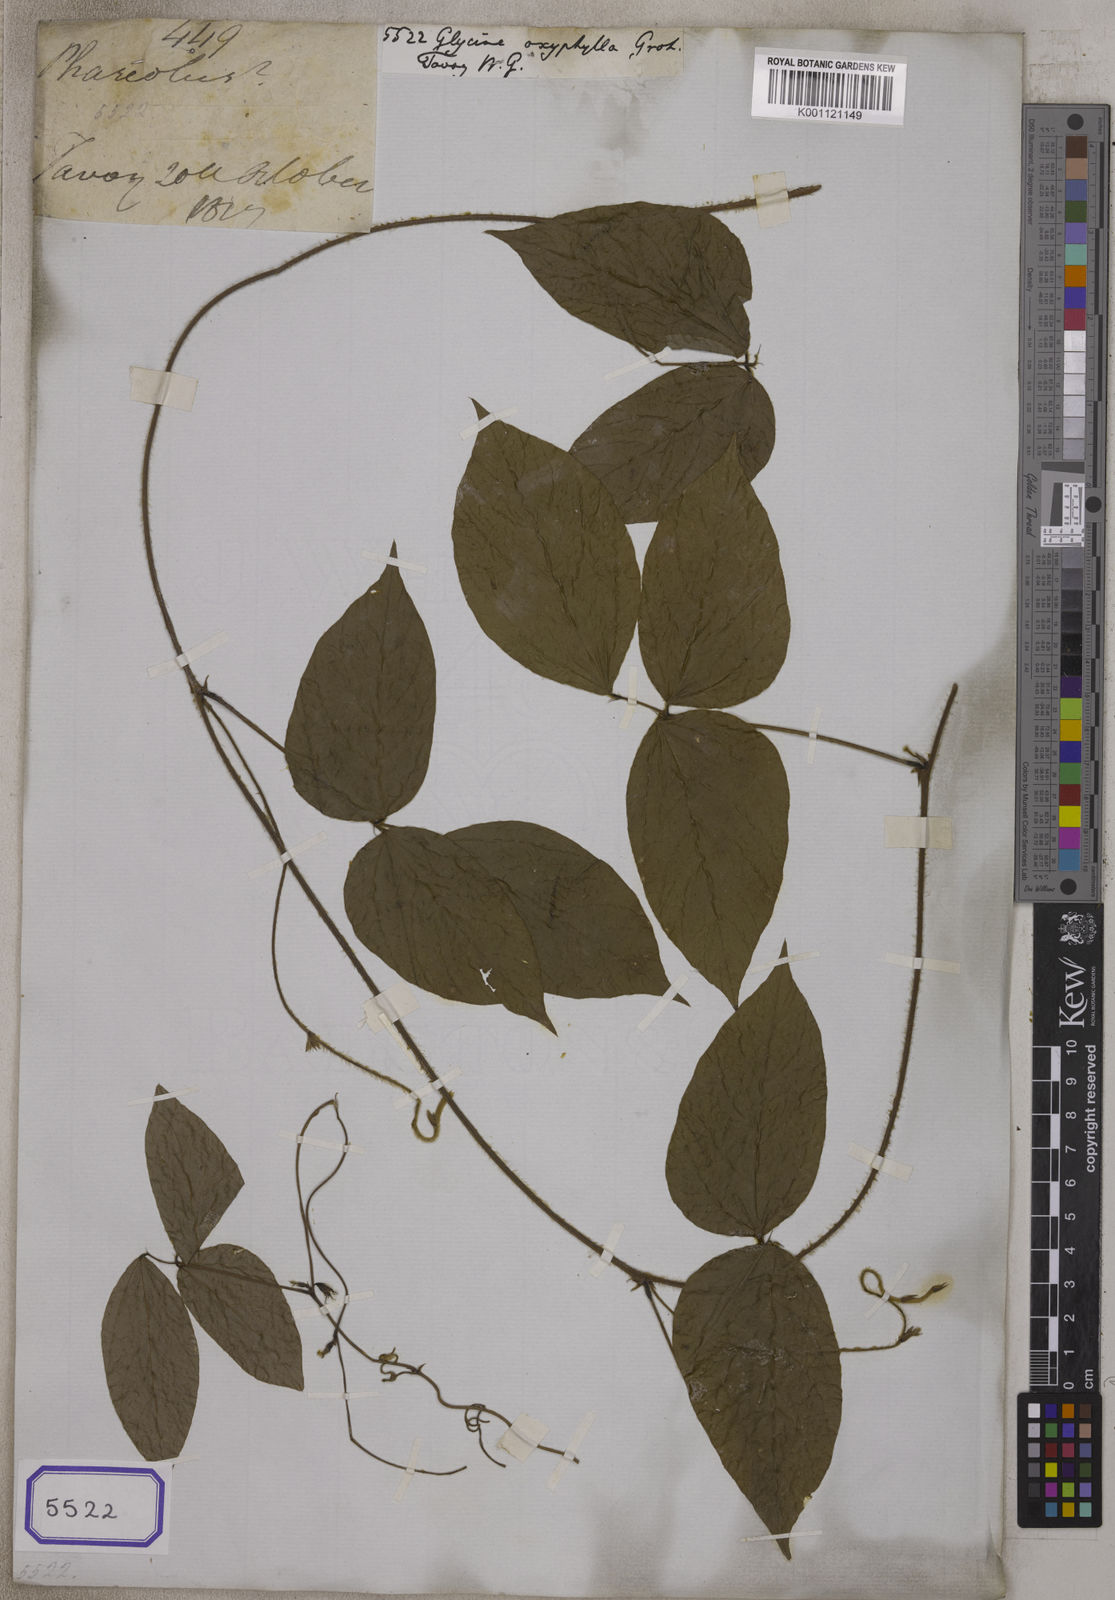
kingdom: Plantae
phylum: Tracheophyta
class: Magnoliopsida
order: Fabales
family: Fabaceae
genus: Sinodolichos
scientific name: Sinodolichos oxyphyllus
